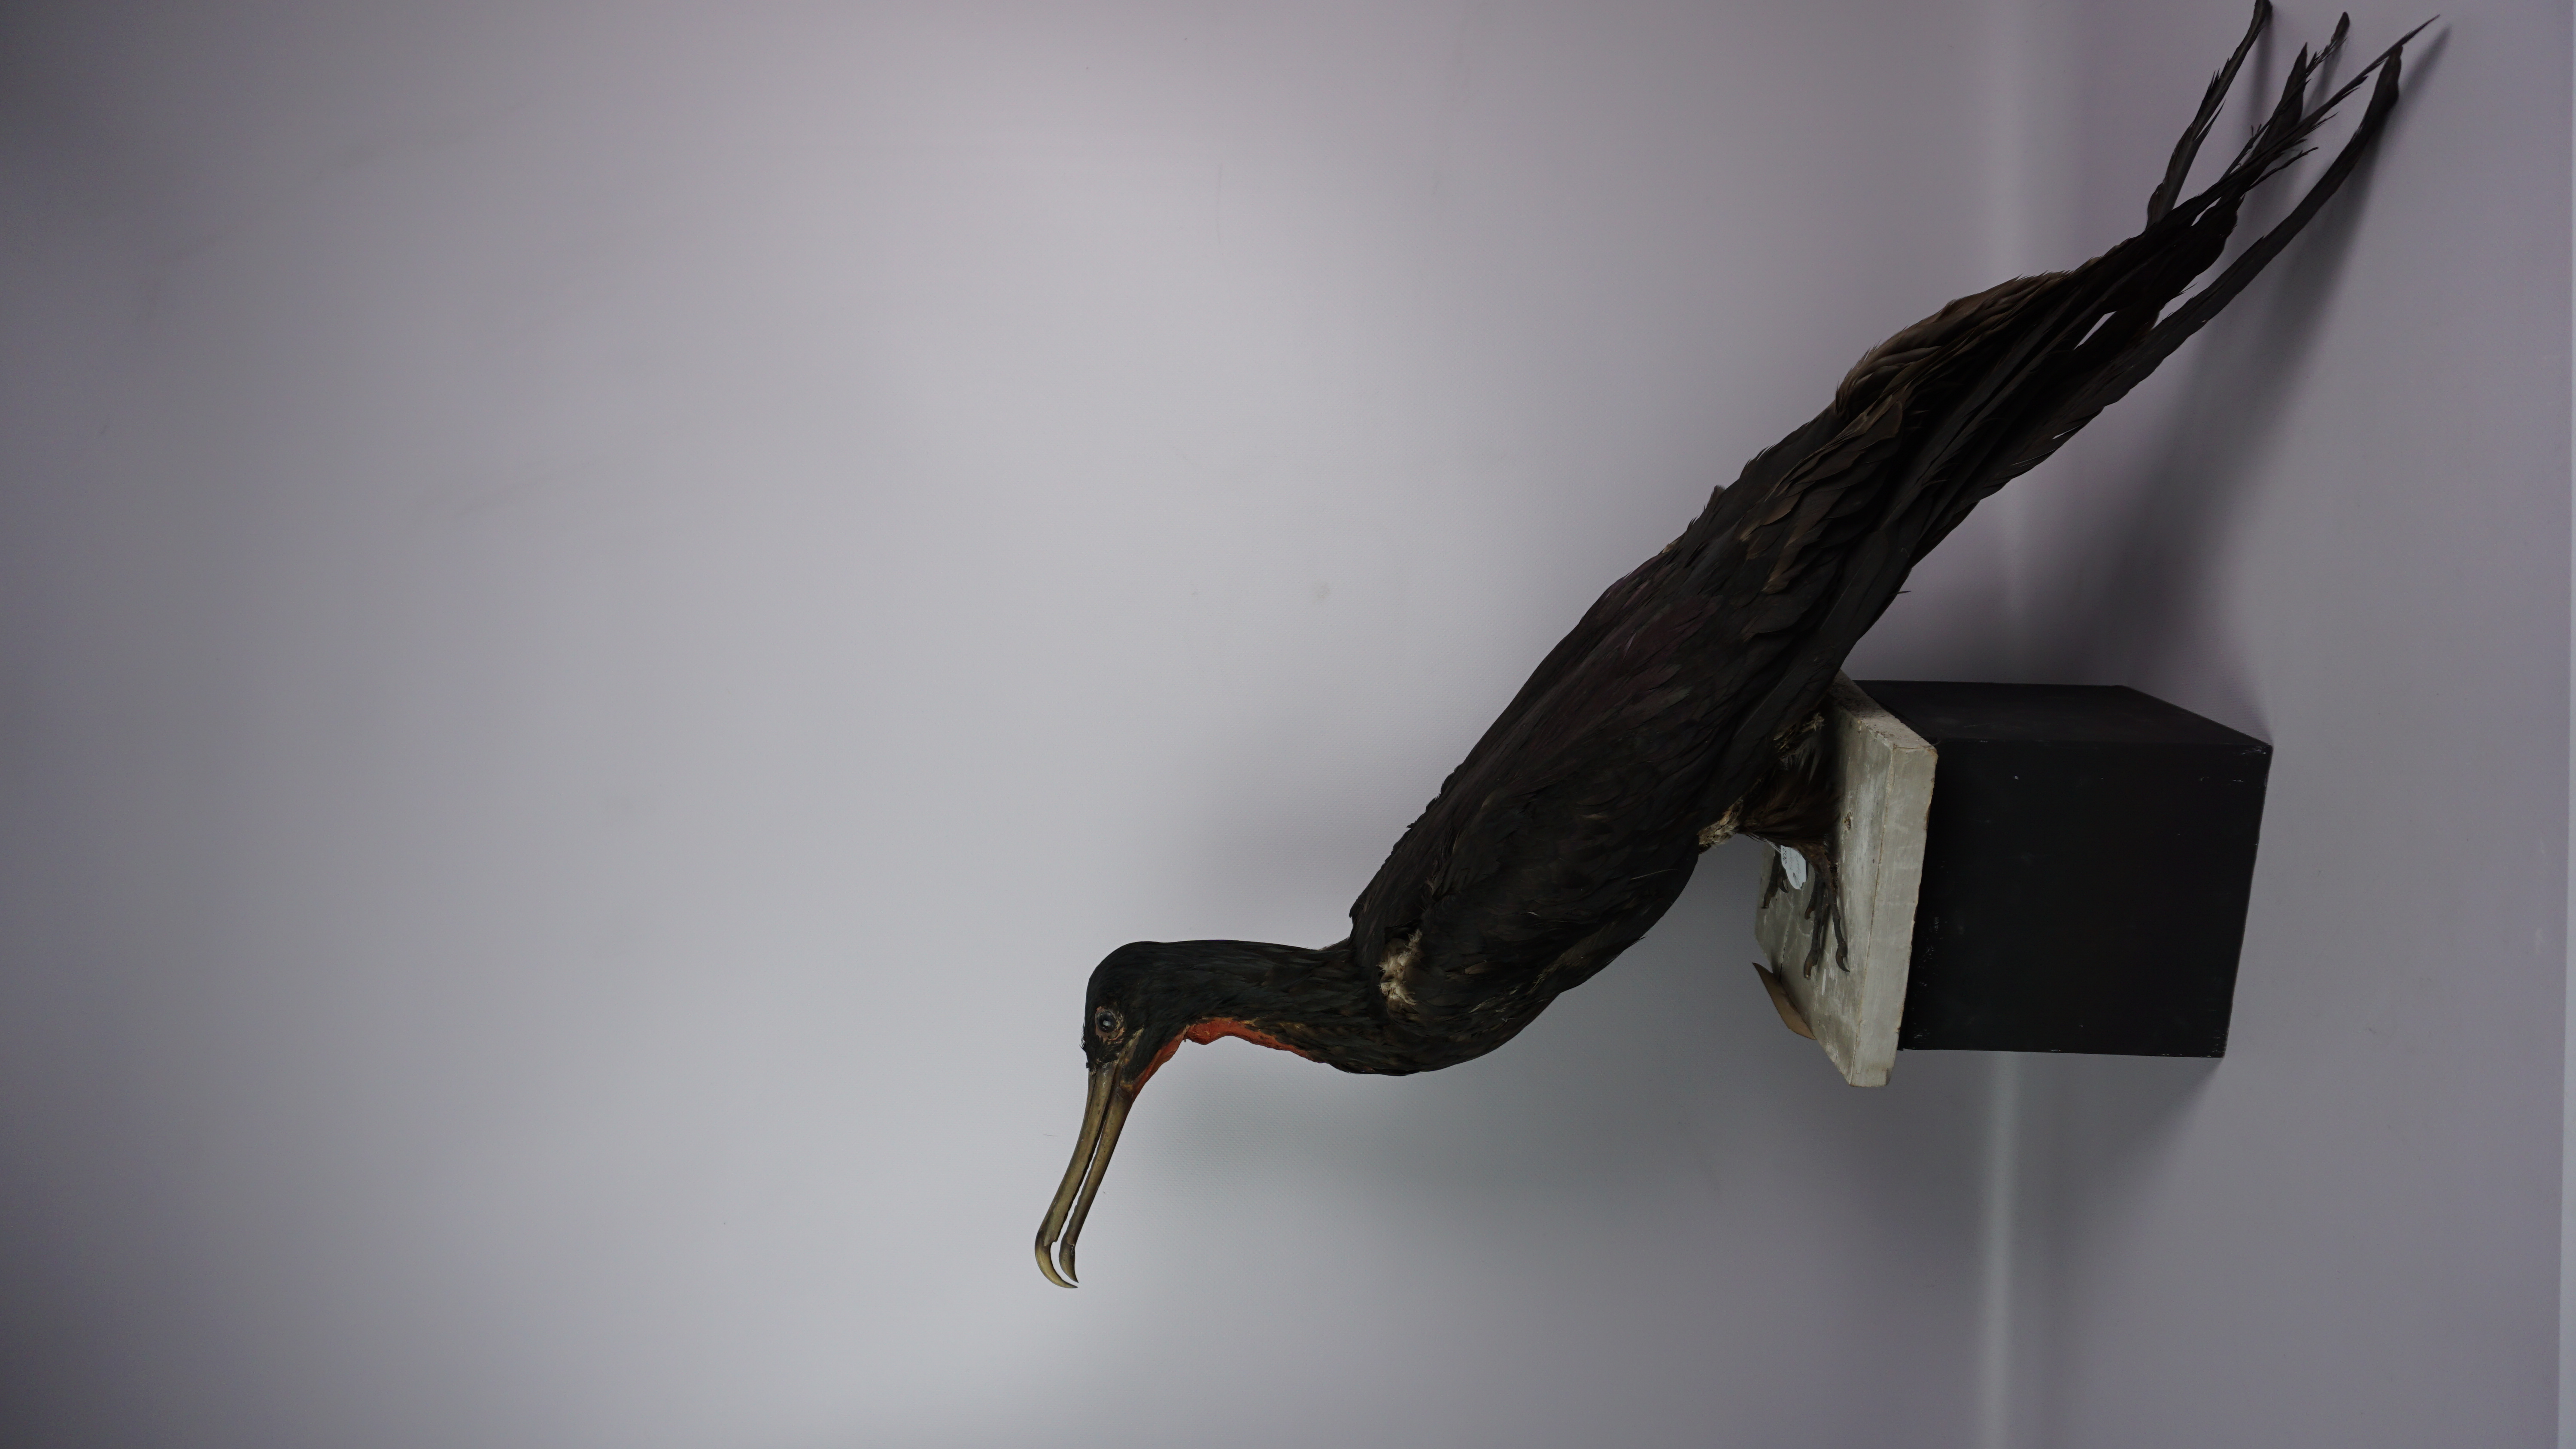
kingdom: Animalia
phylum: Chordata
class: Aves
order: Suliformes
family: Fregatidae
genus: Fregata
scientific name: Fregata magnificens
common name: Magnificent frigatebird
